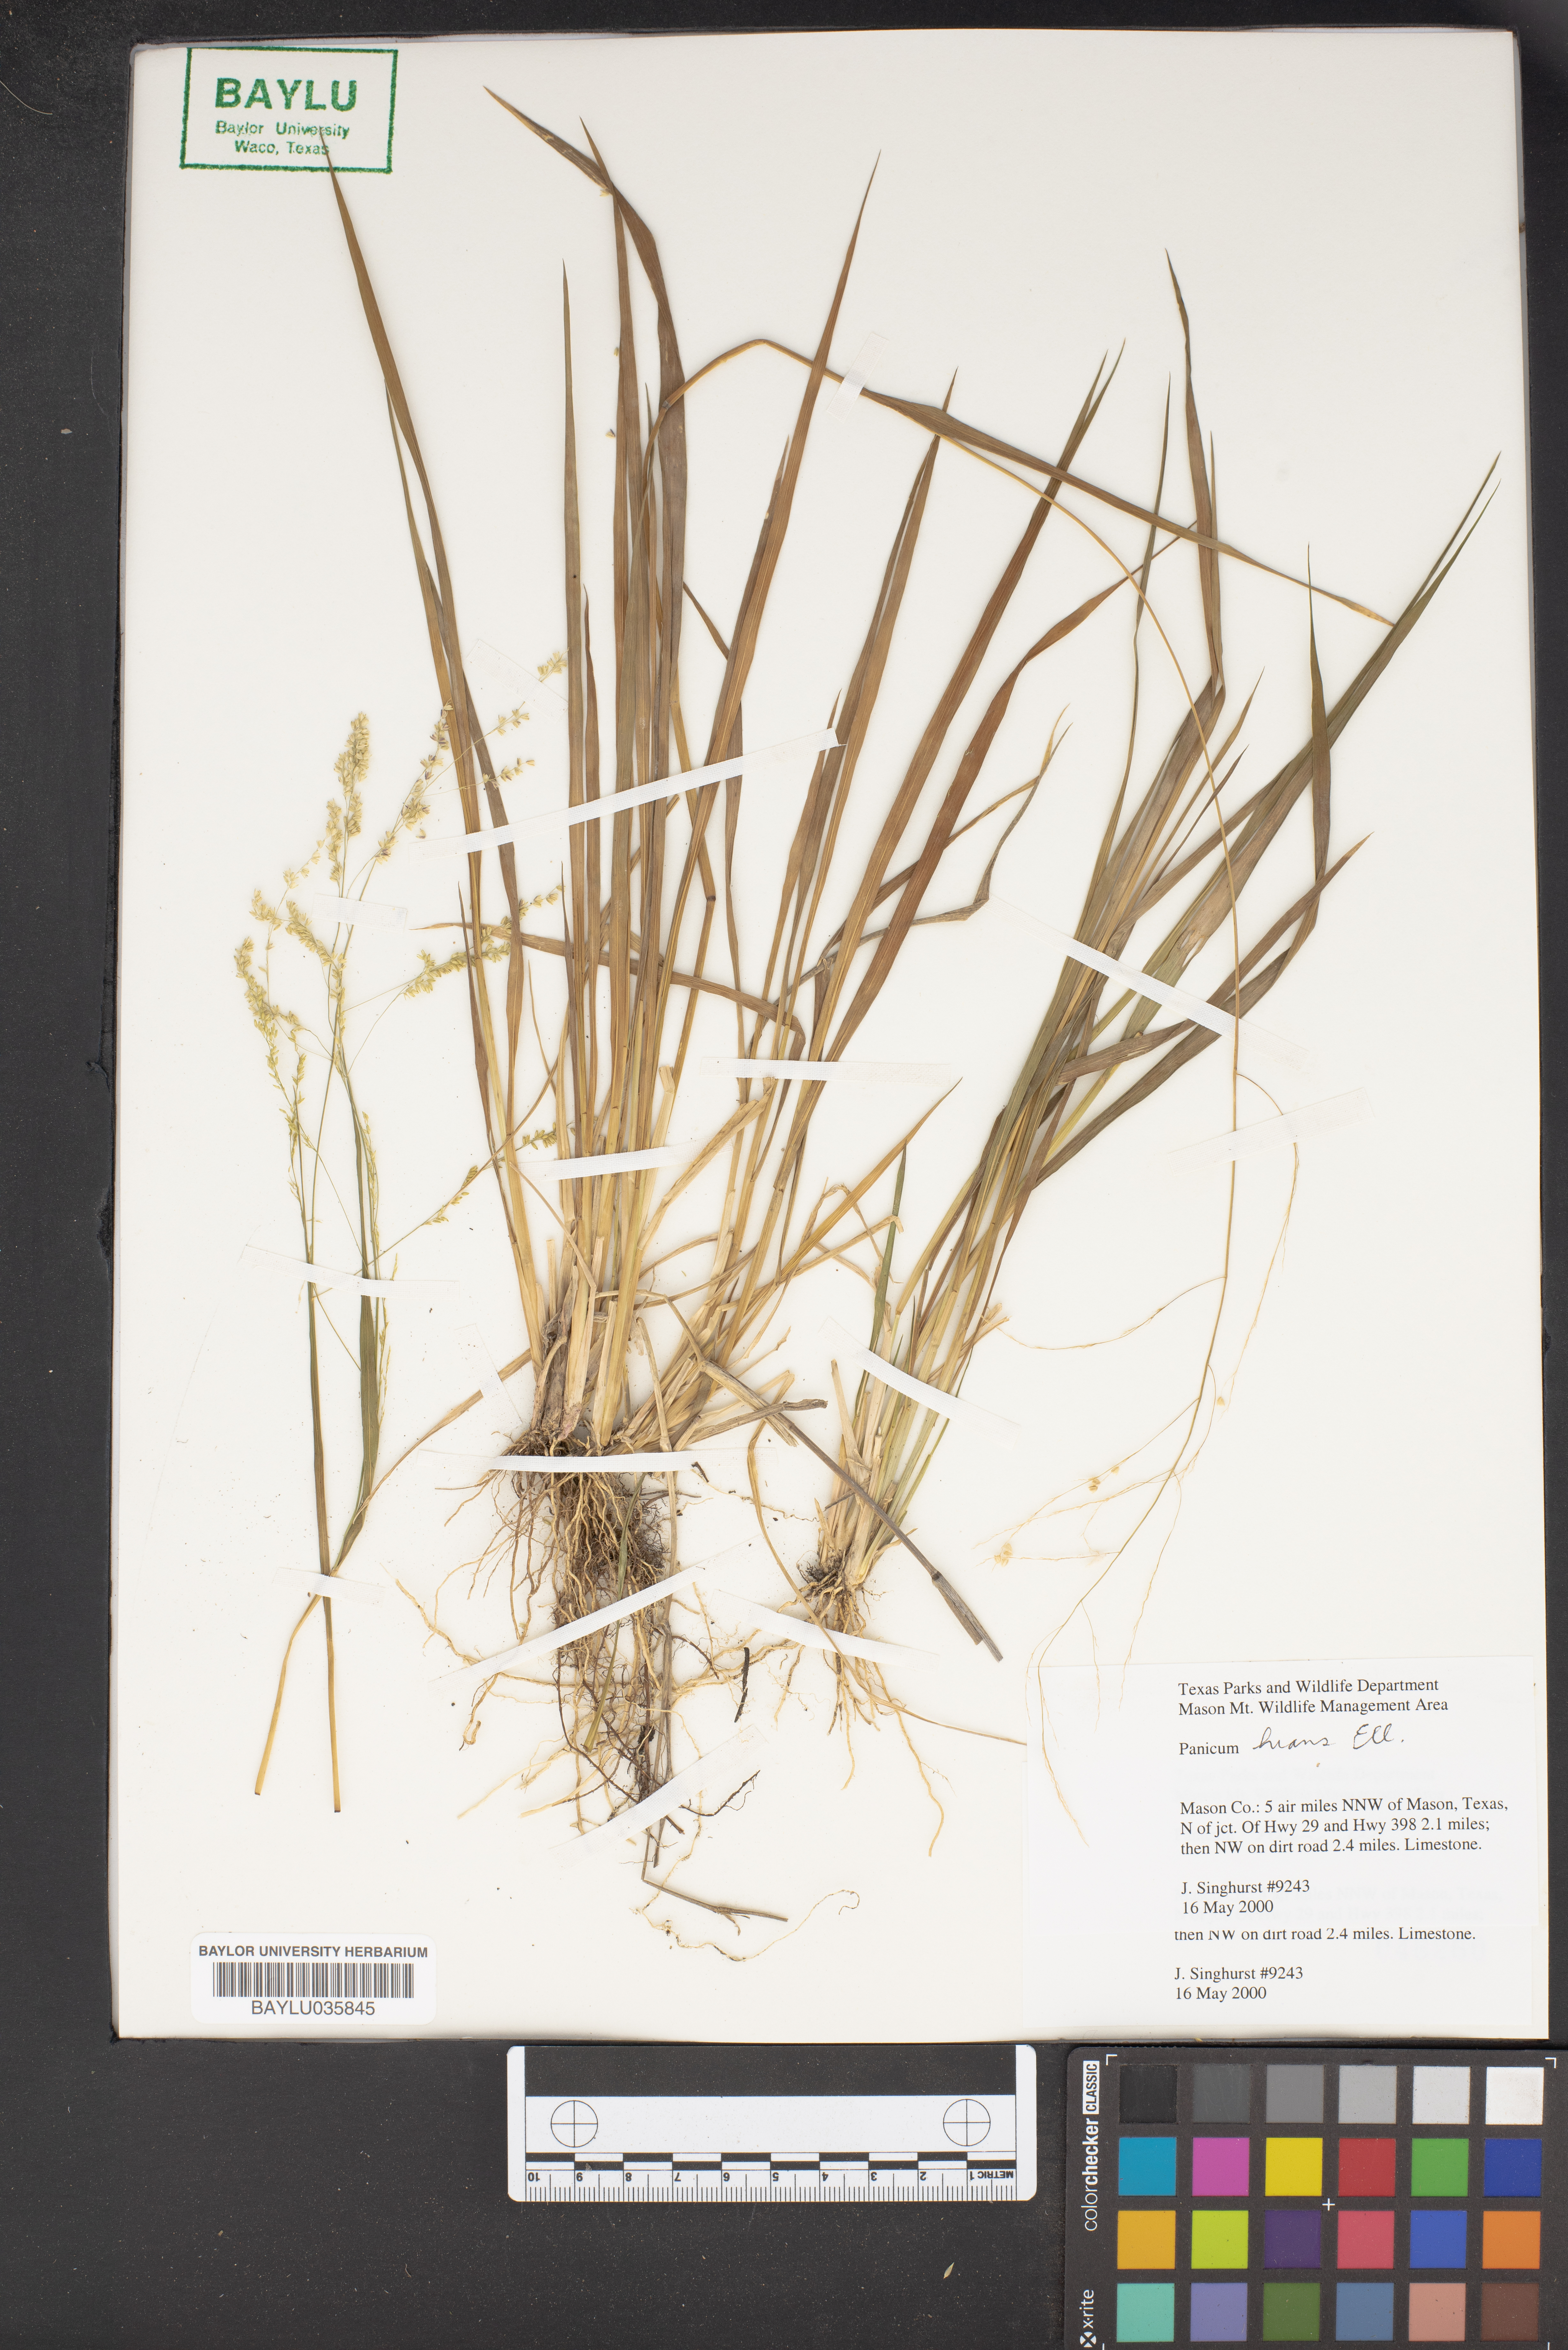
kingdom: Plantae
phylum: Tracheophyta
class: Liliopsida
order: Poales
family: Poaceae
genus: Coleataenia
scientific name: Coleataenia stenodes
